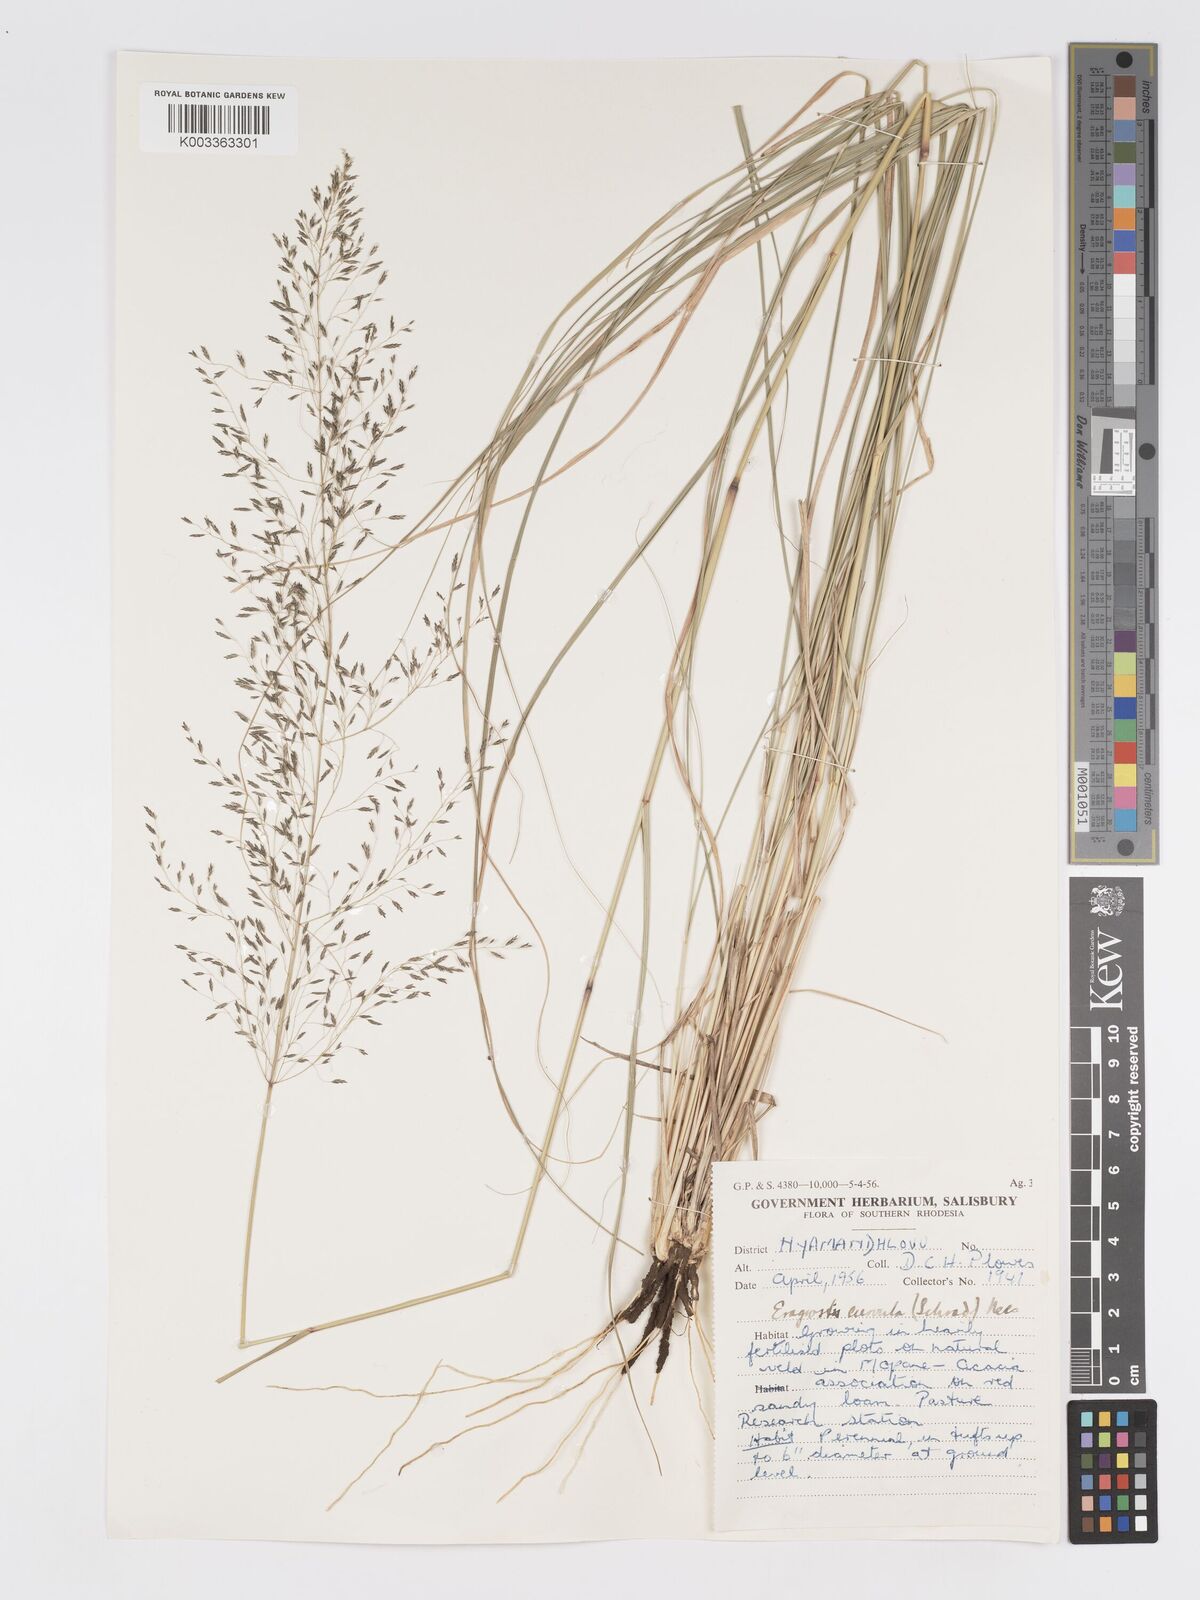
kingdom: Plantae
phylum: Tracheophyta
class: Liliopsida
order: Poales
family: Poaceae
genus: Eragrostis
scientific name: Eragrostis curvula
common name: African love-grass
